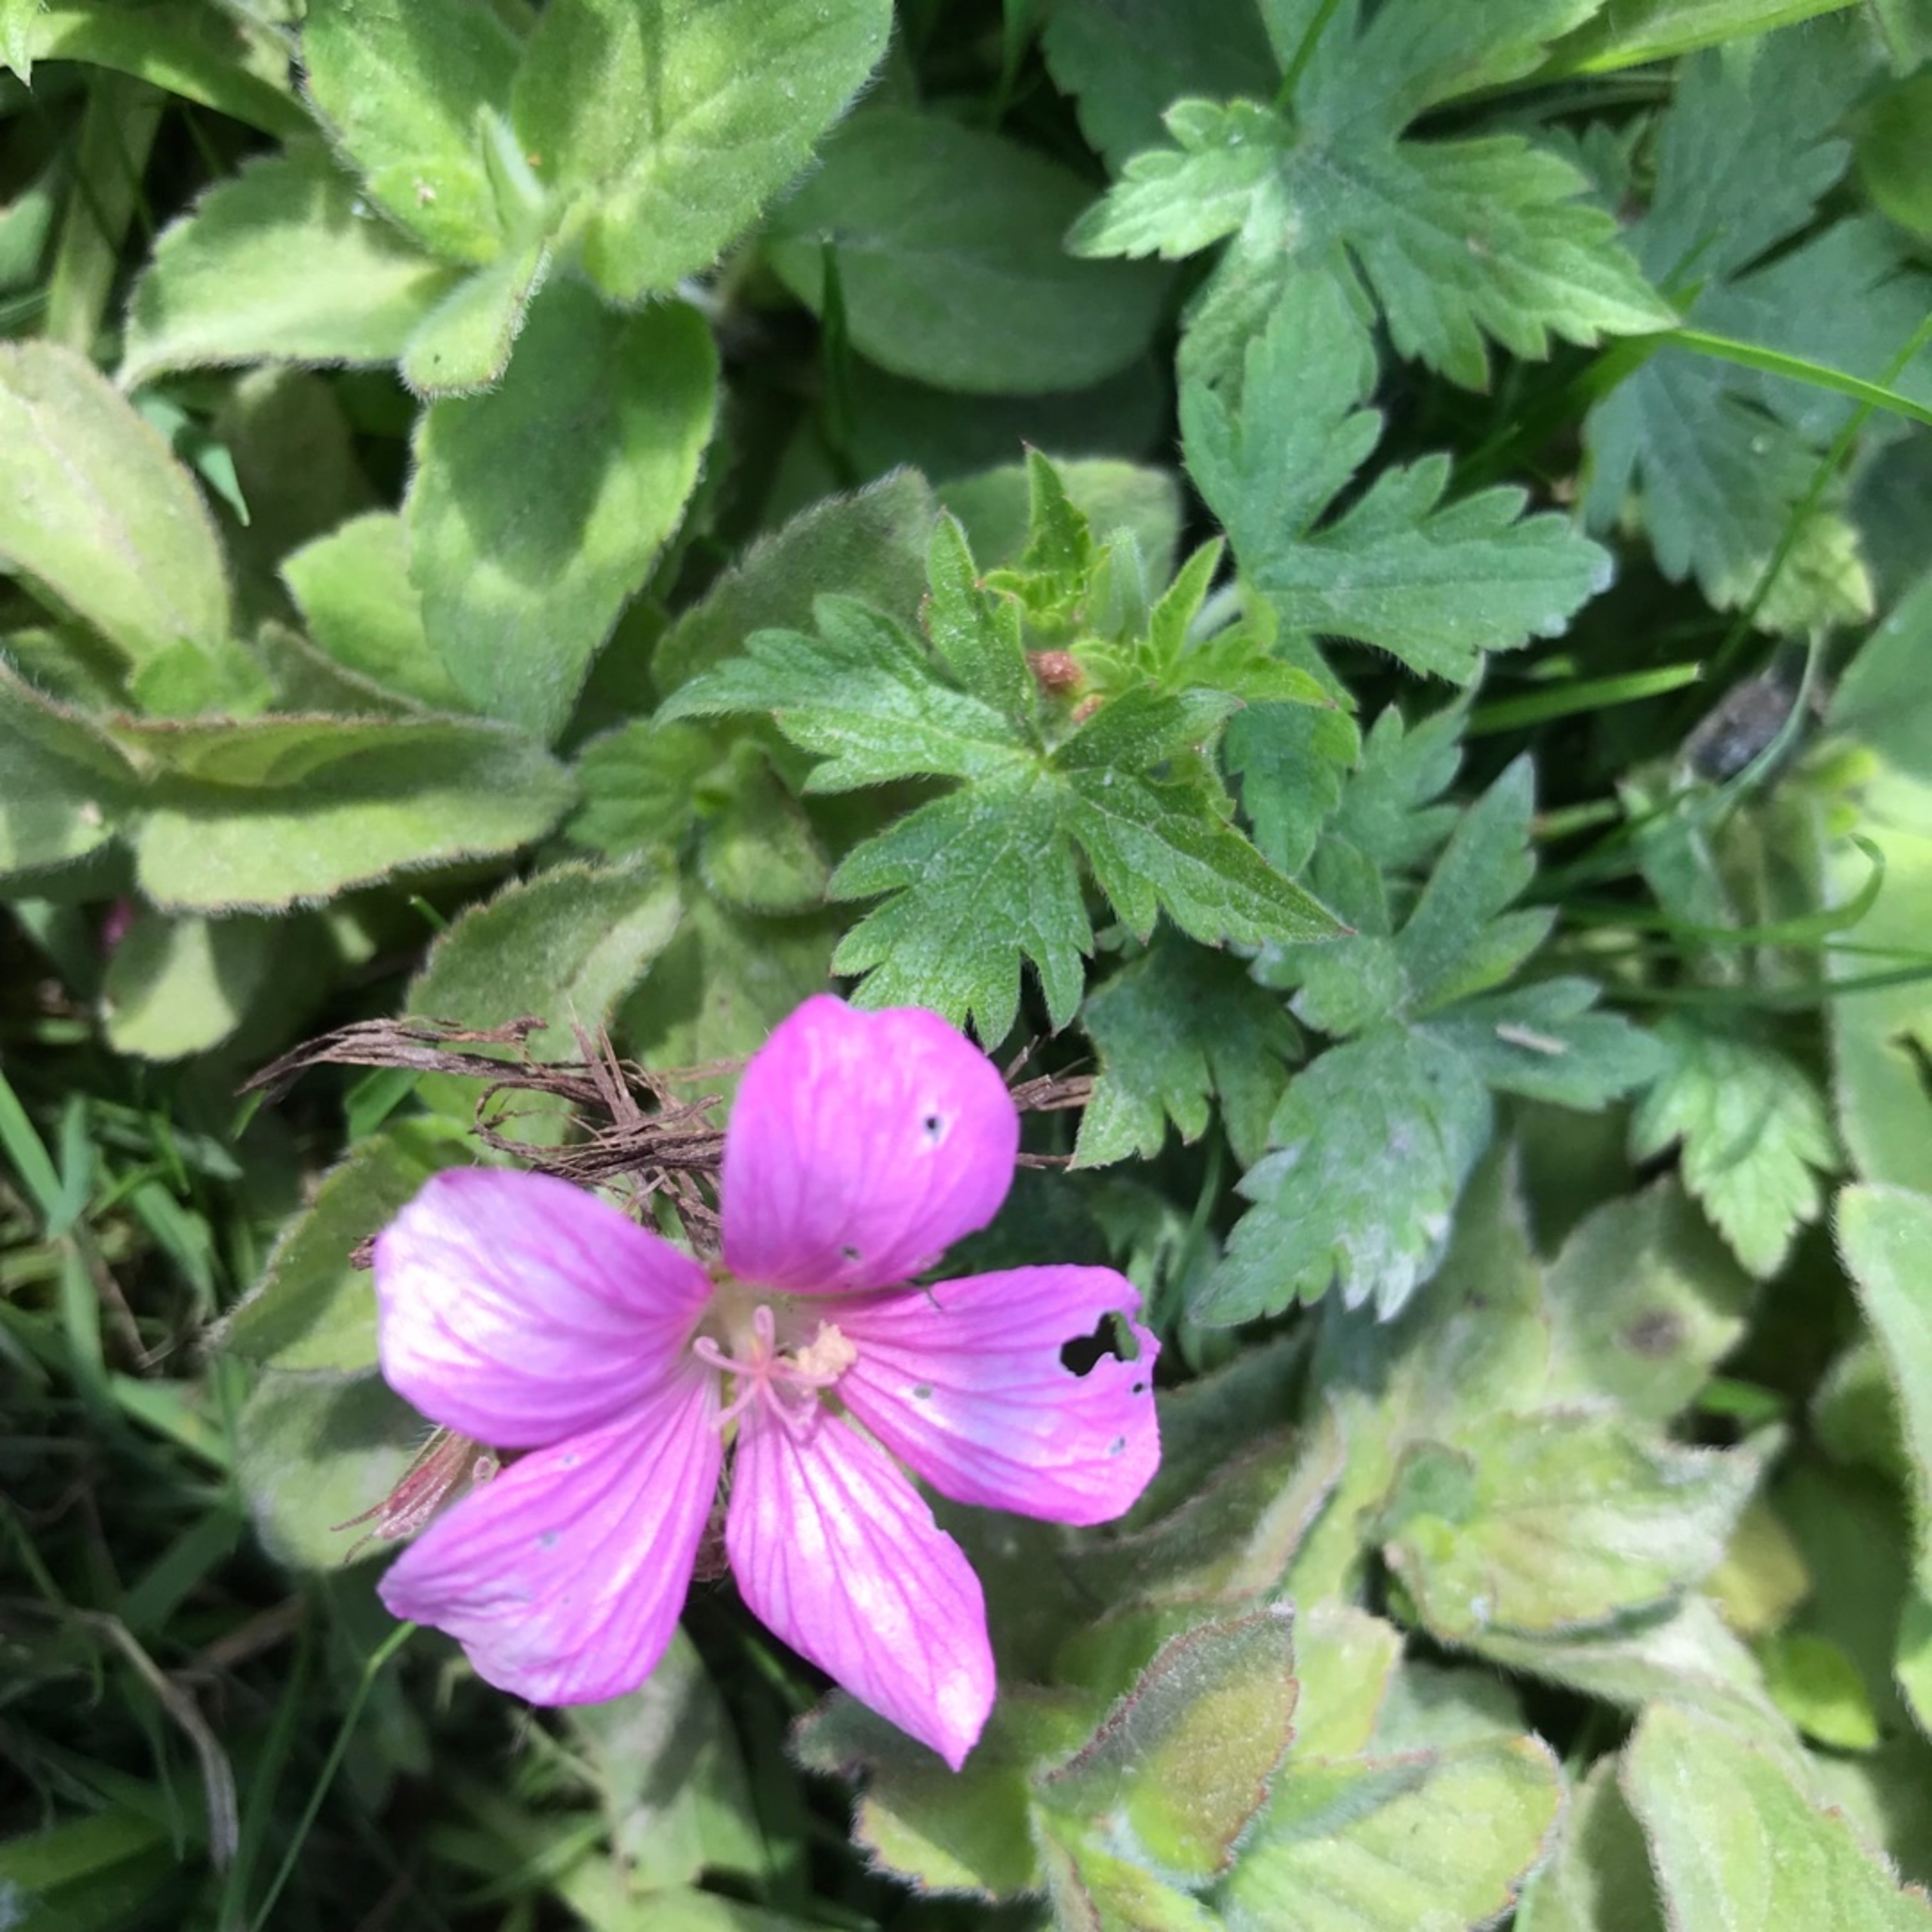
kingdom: Plantae
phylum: Tracheophyta
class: Magnoliopsida
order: Geraniales
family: Geraniaceae
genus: Geranium
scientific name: Geranium endressii
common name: Spansk storkenæb
